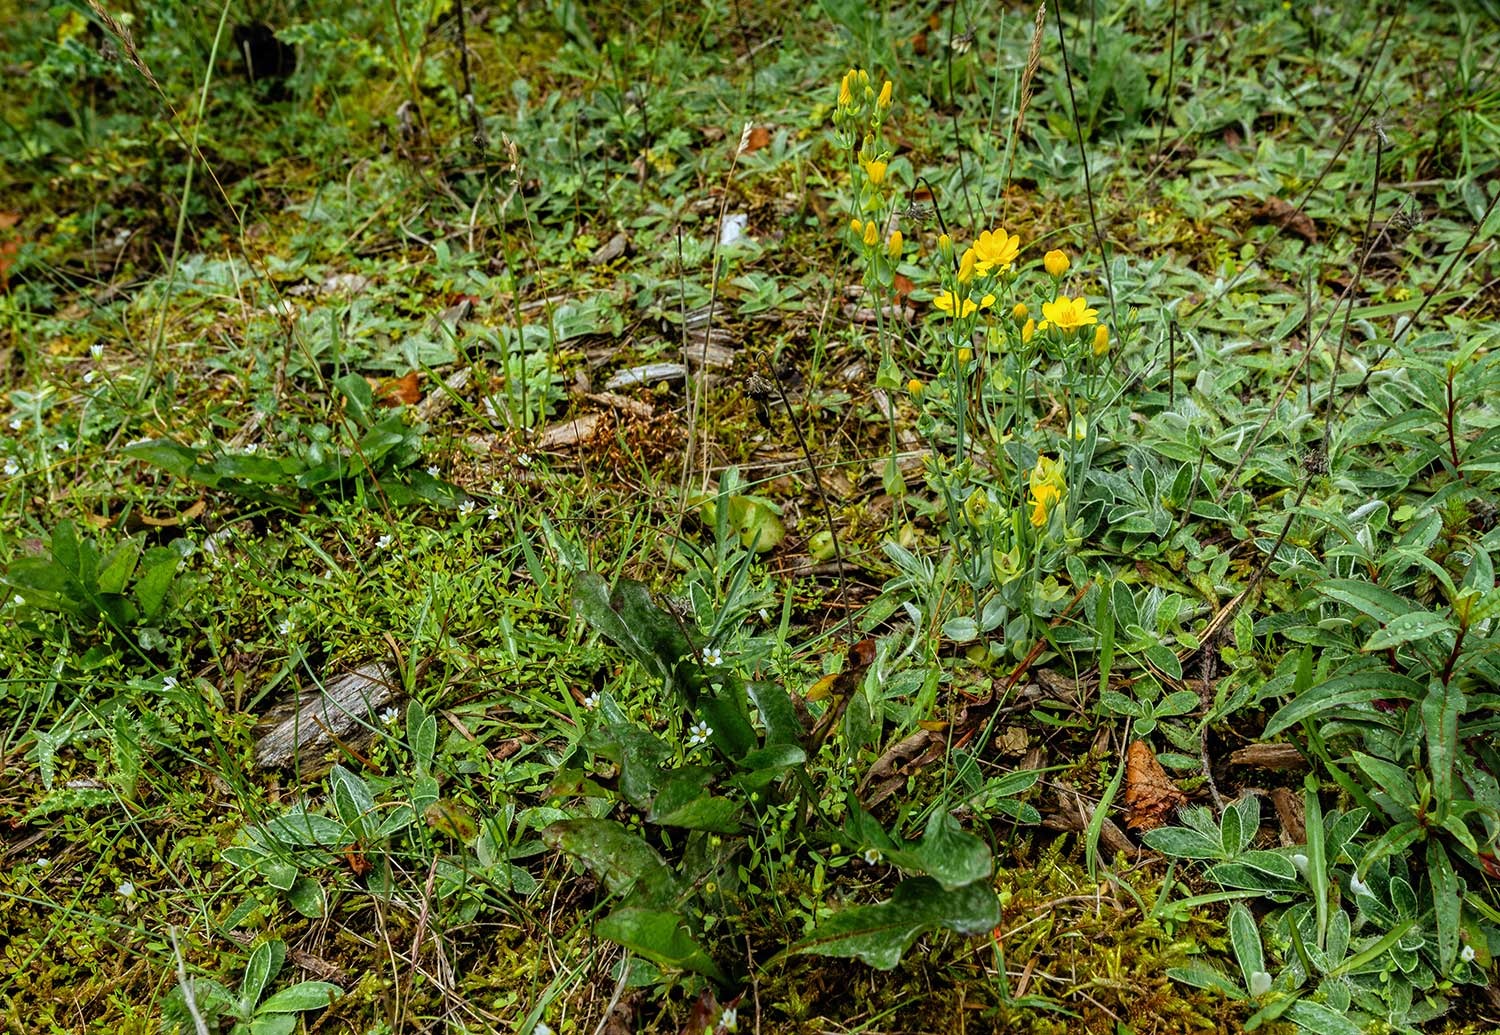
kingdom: Plantae
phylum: Tracheophyta
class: Magnoliopsida
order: Gentianales
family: Gentianaceae
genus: Blackstonia
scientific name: Blackstonia perfoliata
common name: Almindelig gyldenurt
